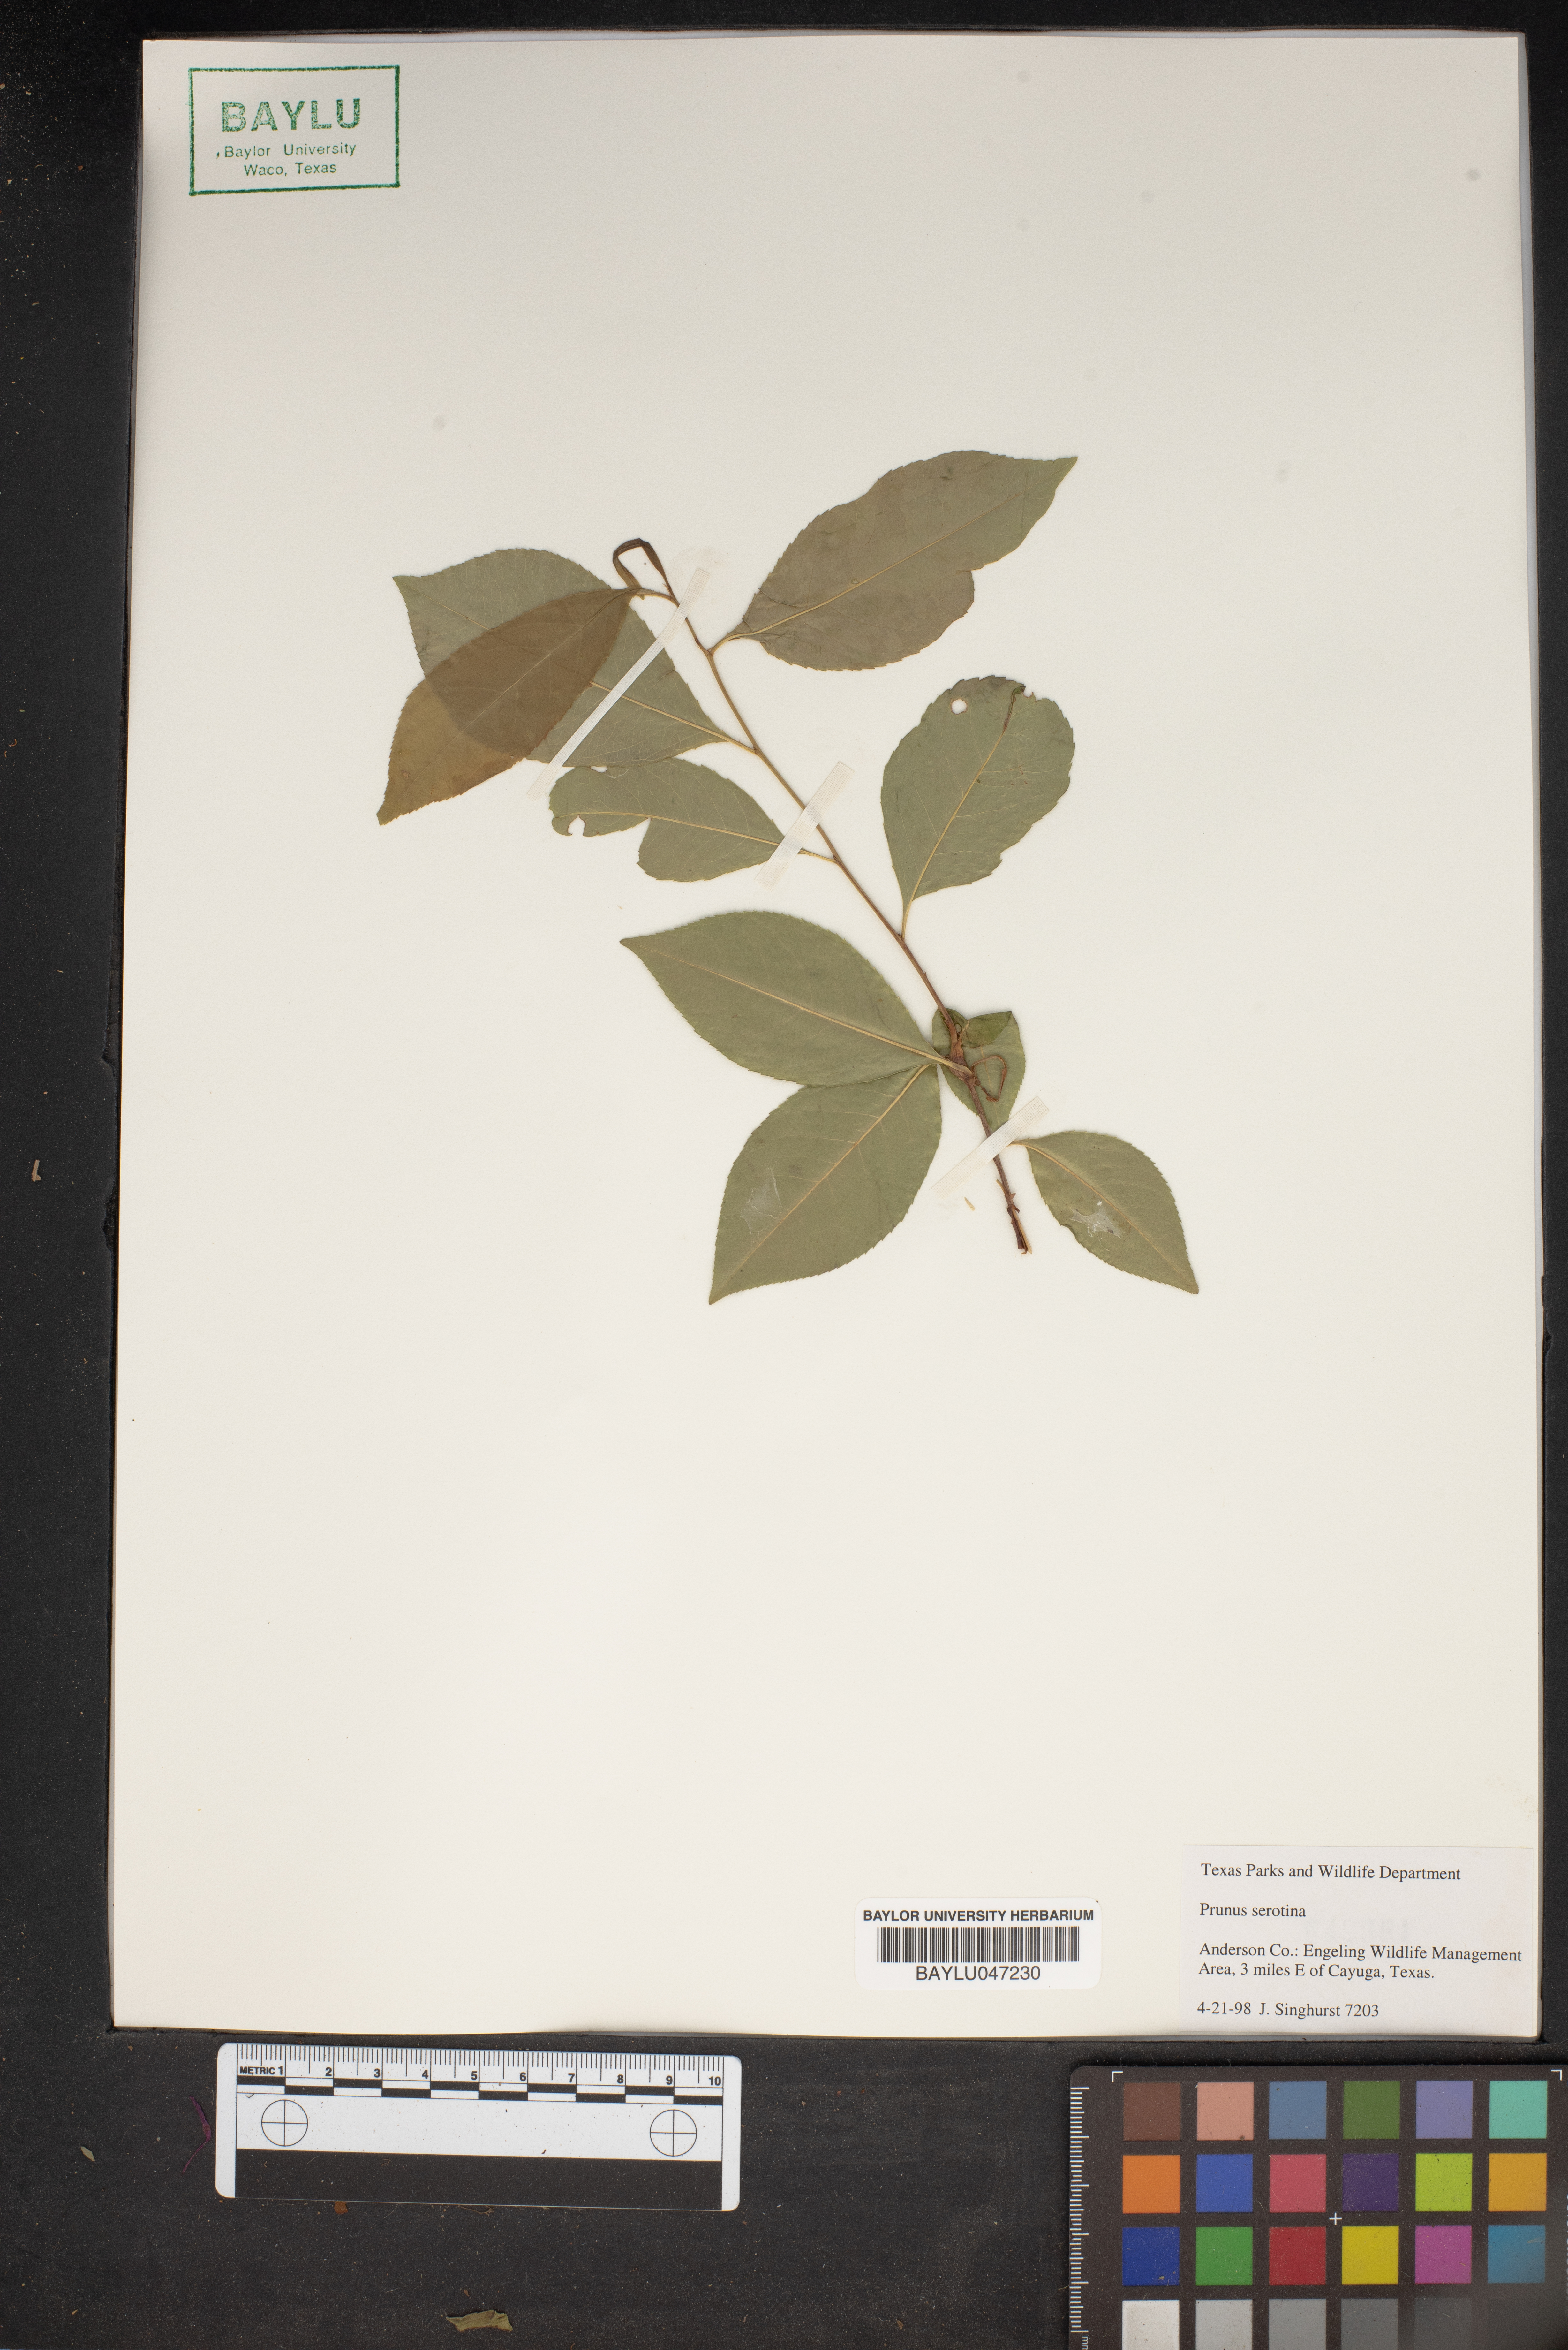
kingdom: Plantae
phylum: Tracheophyta
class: Magnoliopsida
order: Rosales
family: Rosaceae
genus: Prunus
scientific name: Prunus serotina
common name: Black cherry
